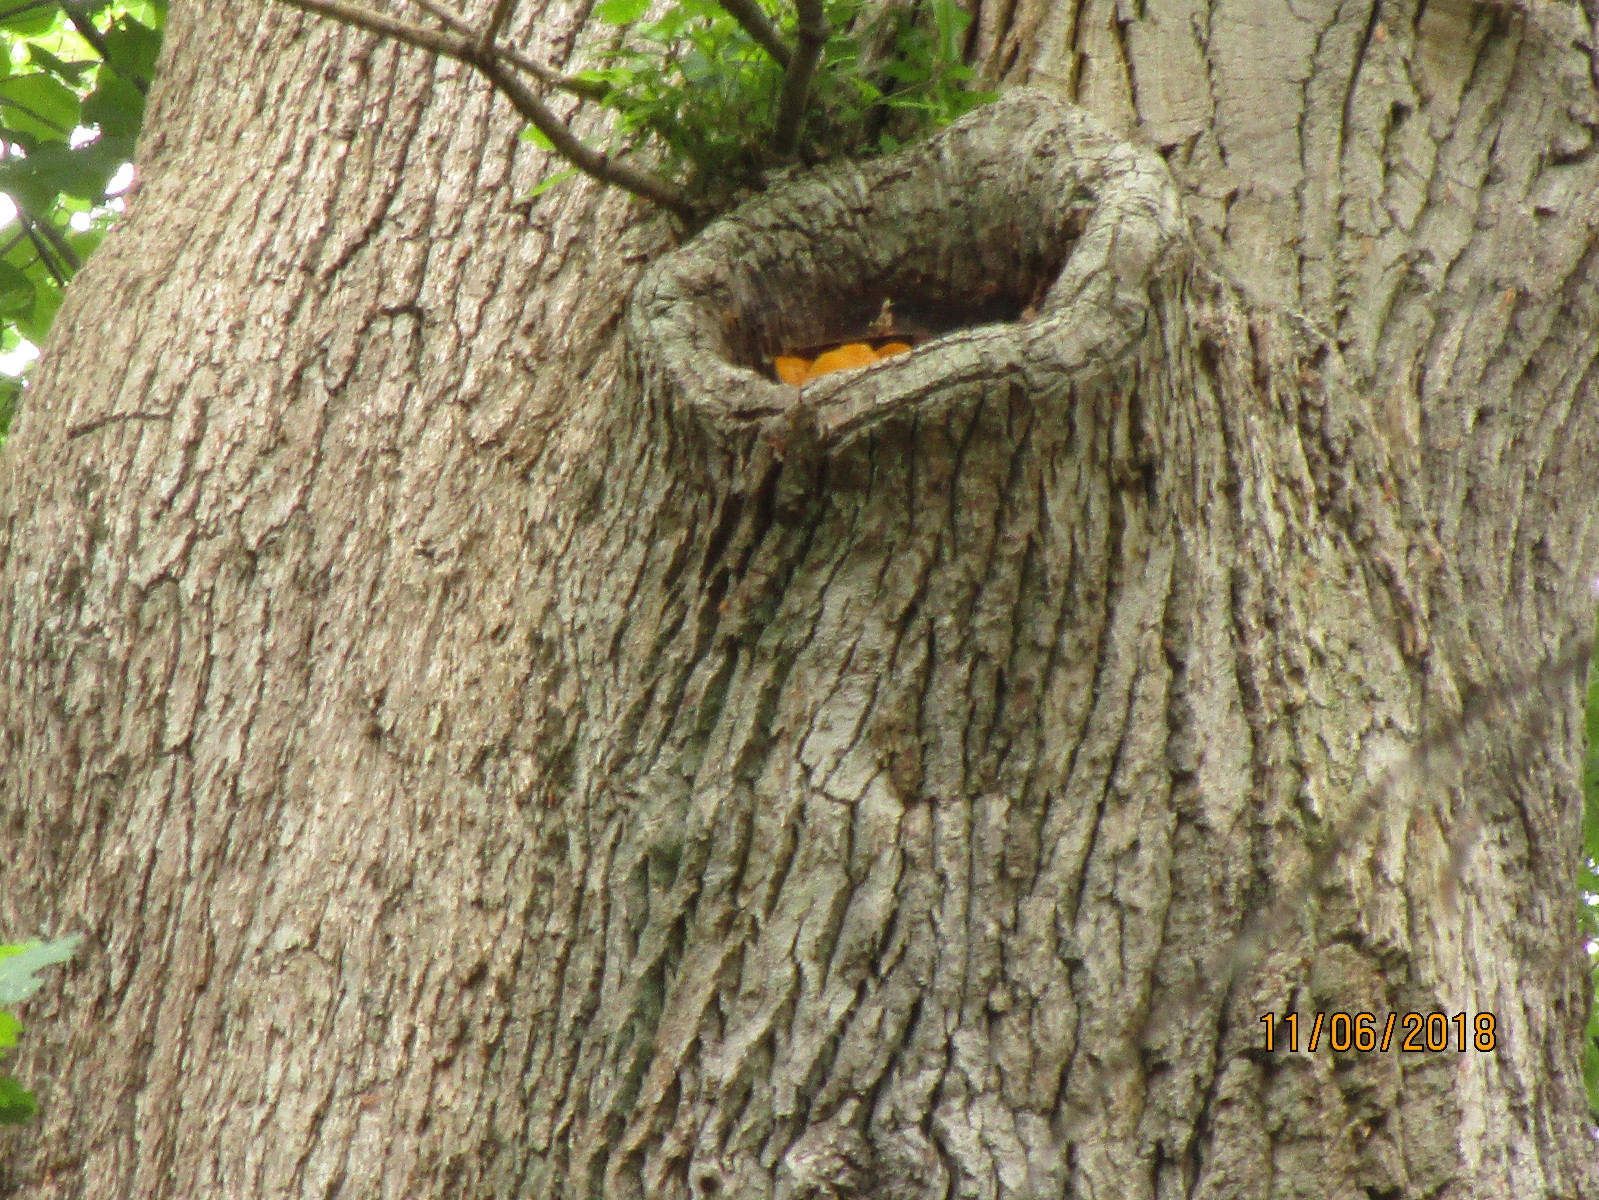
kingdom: Fungi
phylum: Basidiomycota
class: Agaricomycetes
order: Polyporales
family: Phanerochaetaceae
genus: Hapalopilus
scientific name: Hapalopilus croceus
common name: safrangul pragtporesvamp
